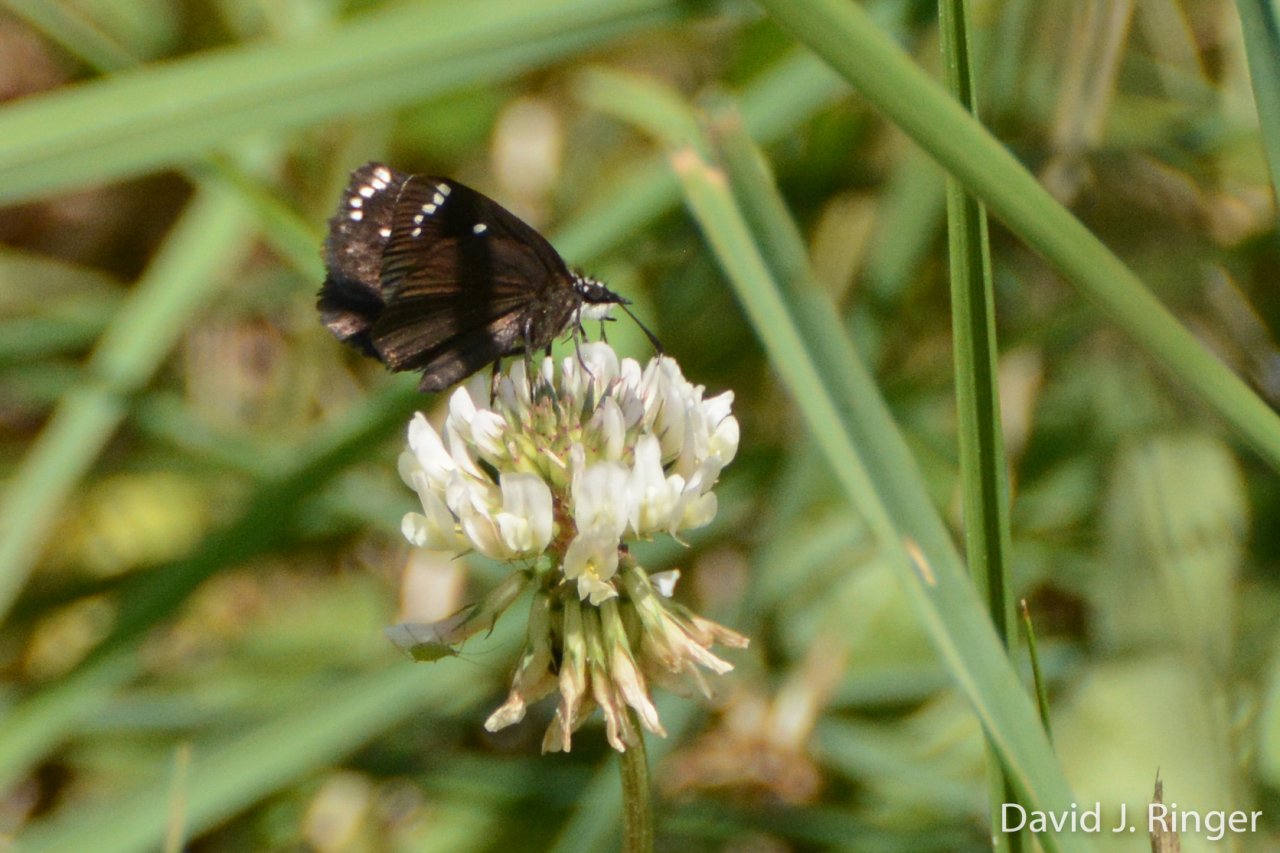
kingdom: Animalia
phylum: Arthropoda
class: Insecta
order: Lepidoptera
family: Hesperiidae
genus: Pholisora
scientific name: Pholisora catullus
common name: Common Sootywing
